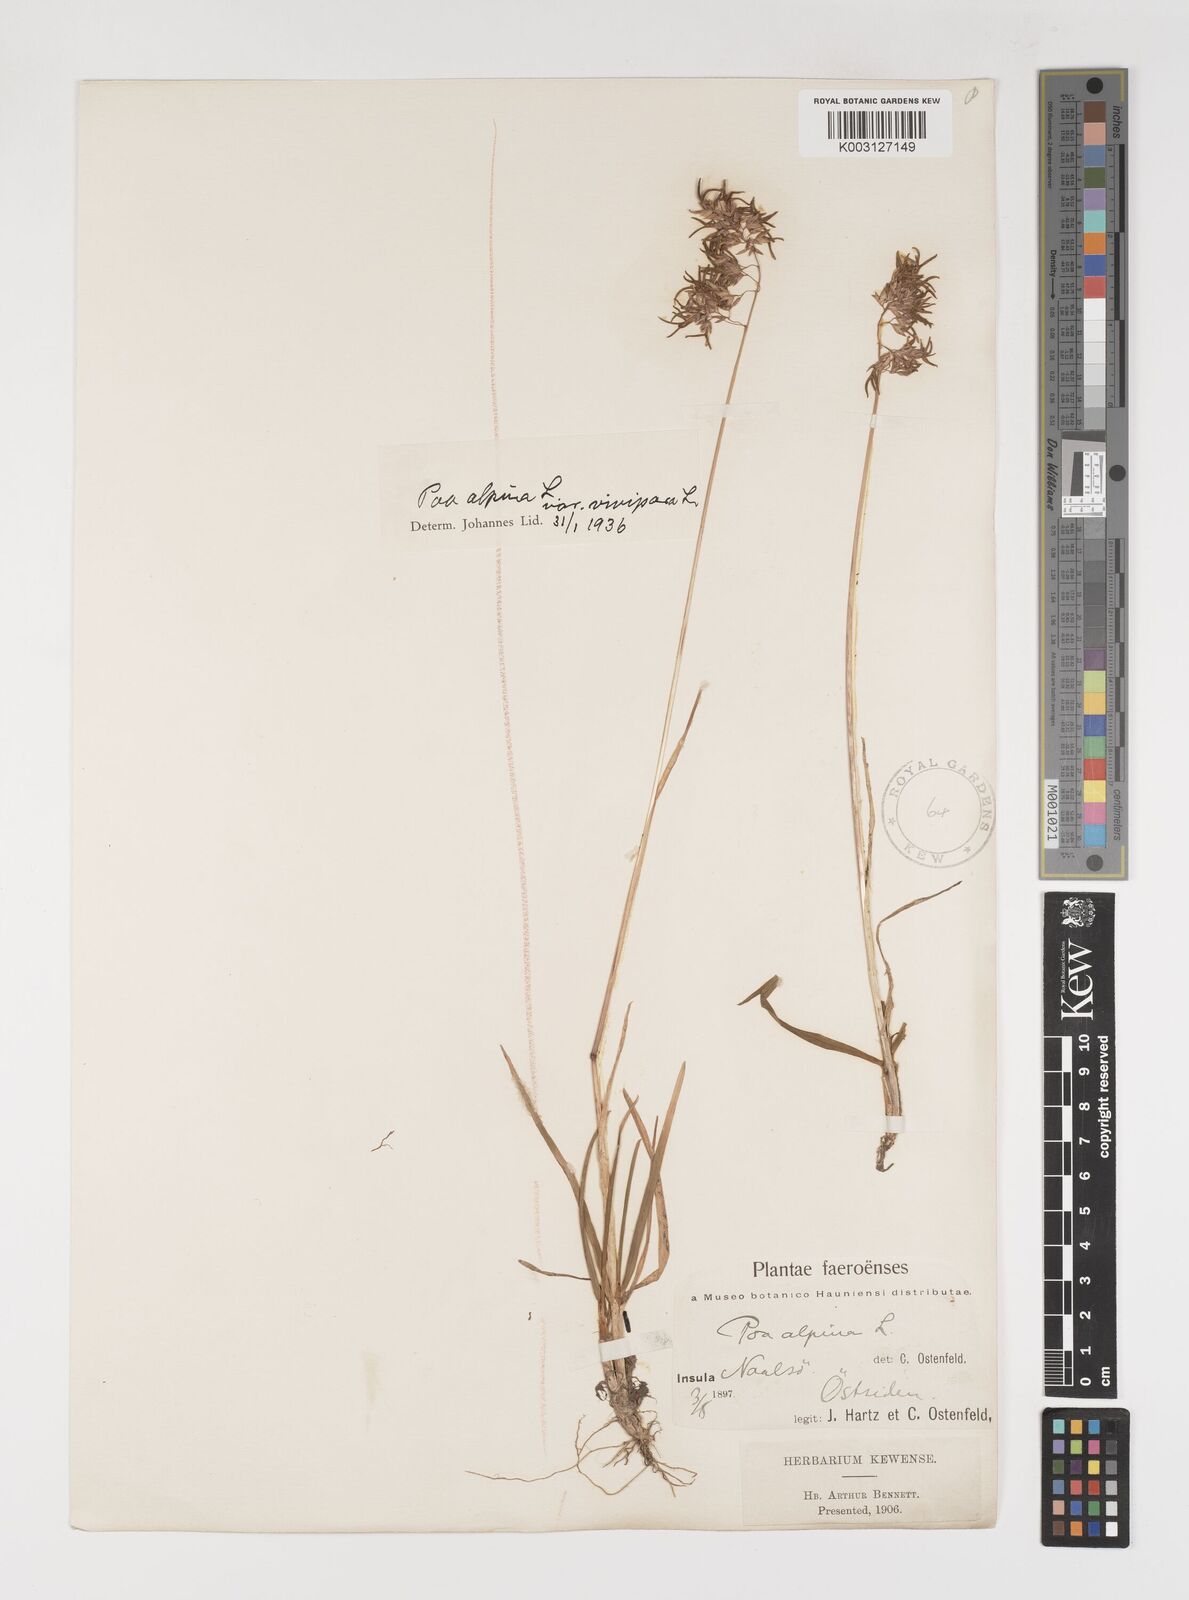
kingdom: Plantae
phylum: Tracheophyta
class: Liliopsida
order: Poales
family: Poaceae
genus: Poa
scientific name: Poa alpina
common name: Alpine bluegrass
